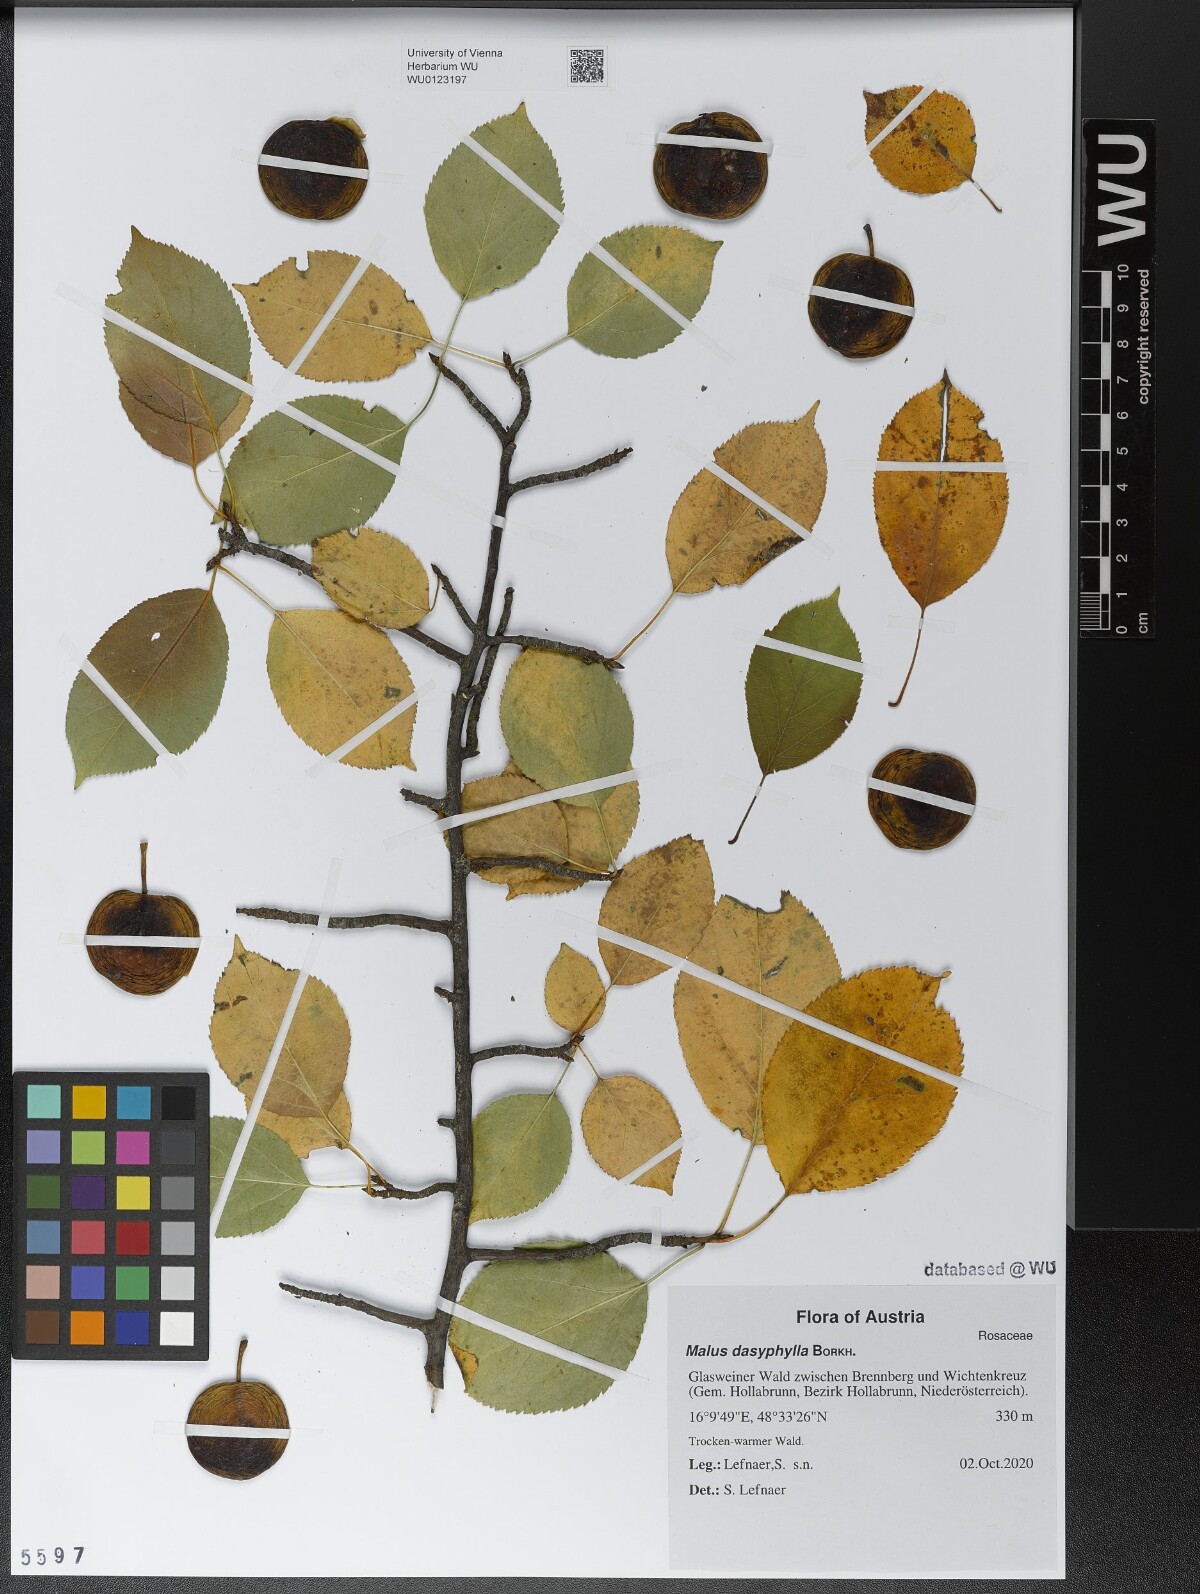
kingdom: Plantae
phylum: Tracheophyta
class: Magnoliopsida
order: Rosales
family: Rosaceae
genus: Malus
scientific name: Malus dasyphylla
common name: Paradise apple
